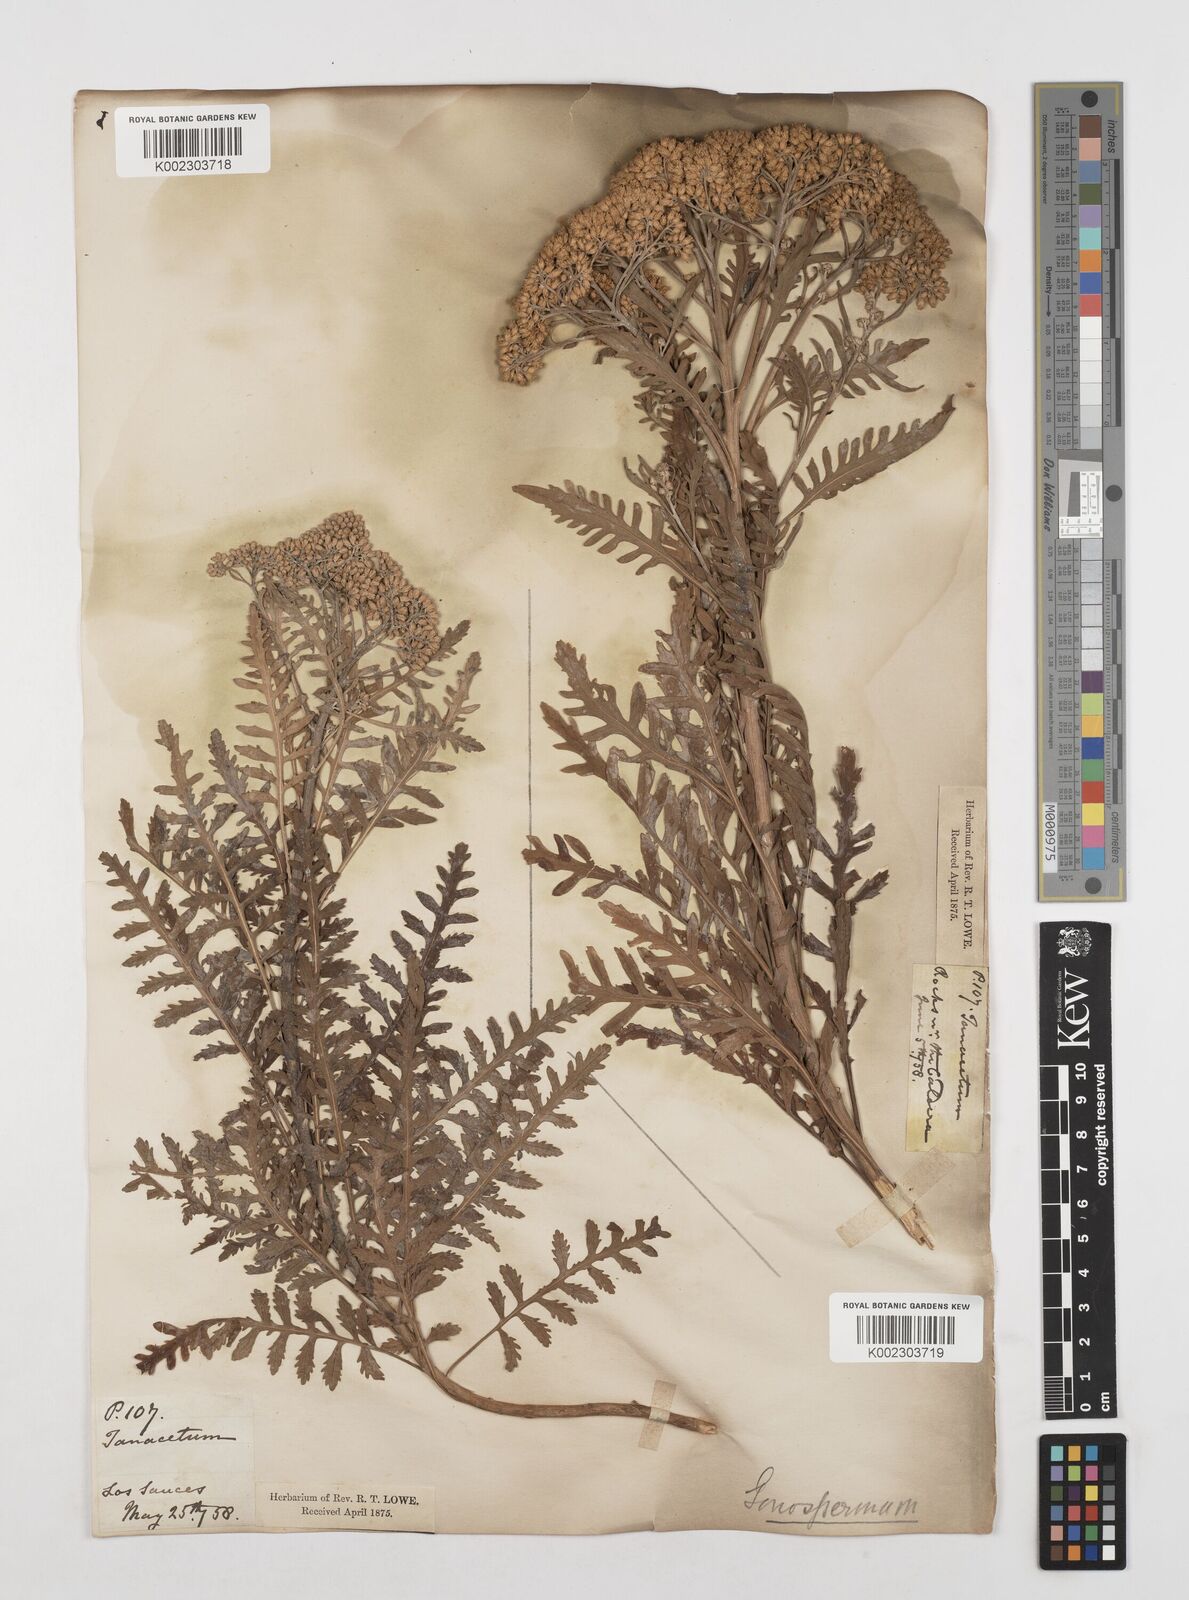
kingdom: Plantae
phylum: Tracheophyta
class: Magnoliopsida
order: Asterales
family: Asteraceae
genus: Gonospermum
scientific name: Gonospermum canariense
